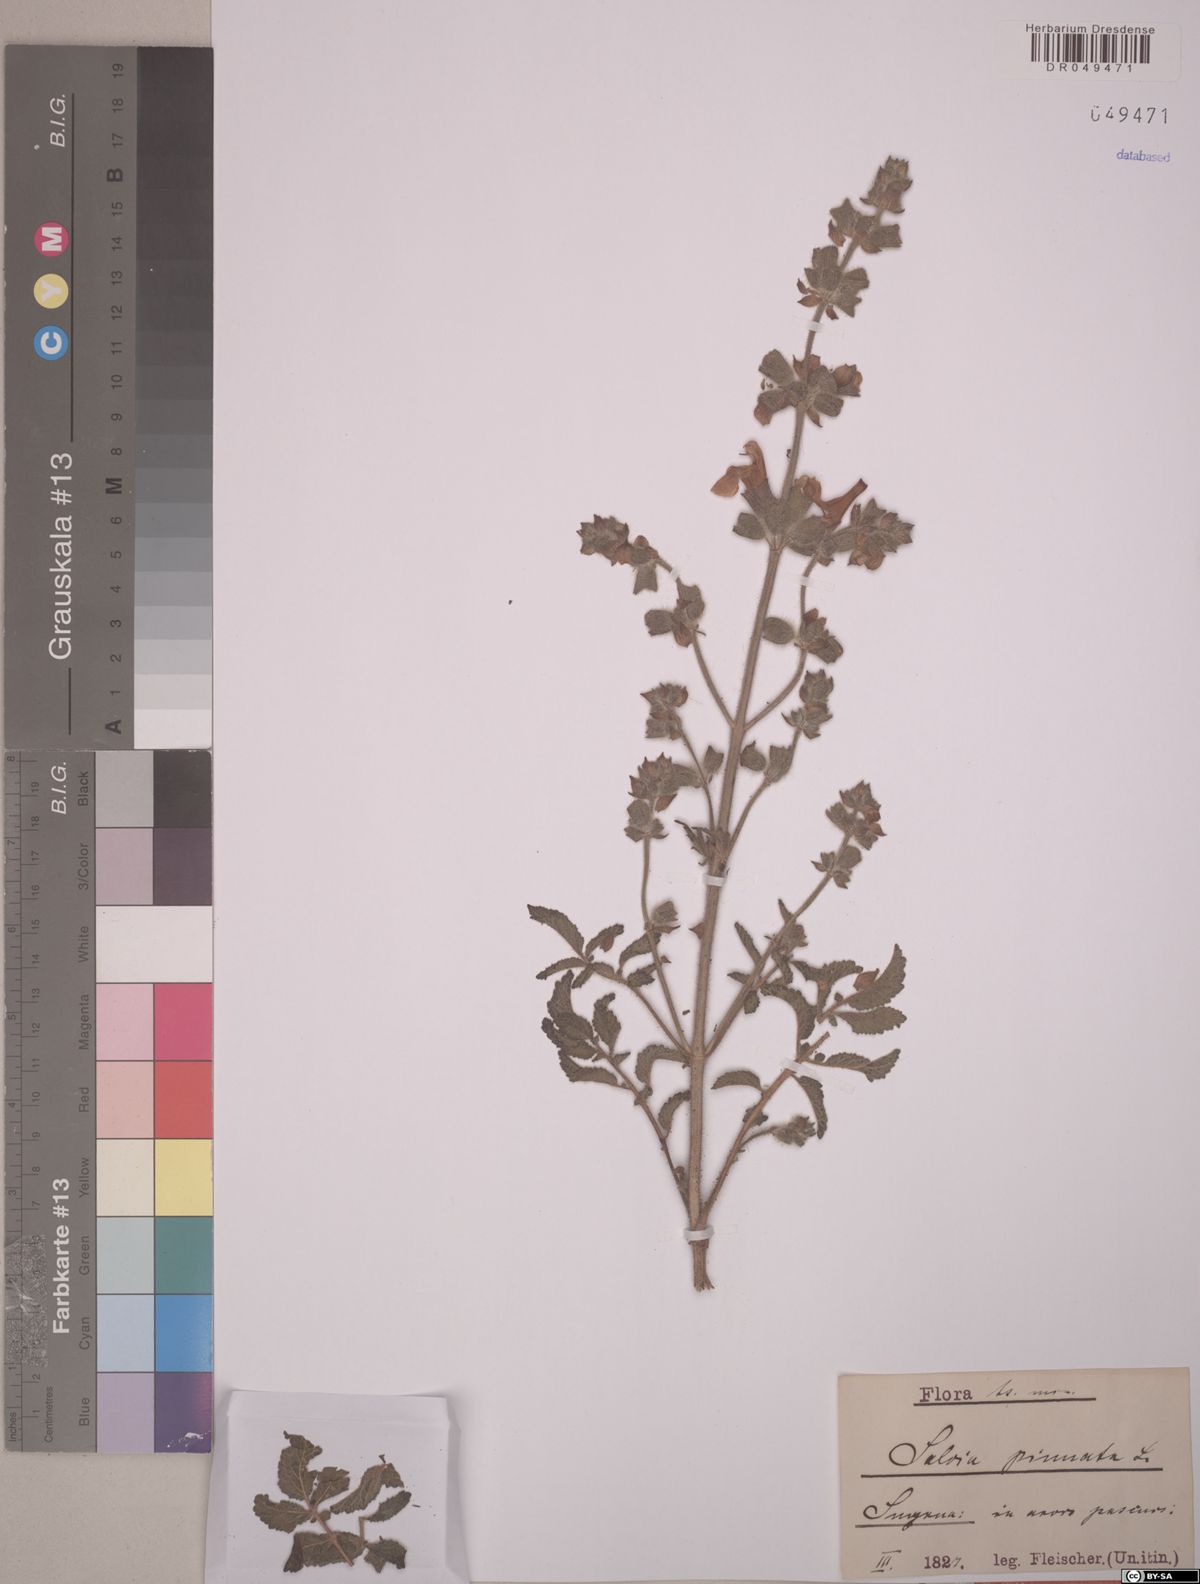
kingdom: Plantae
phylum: Tracheophyta
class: Magnoliopsida
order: Lamiales
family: Lamiaceae
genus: Salvia
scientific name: Salvia pinnata
